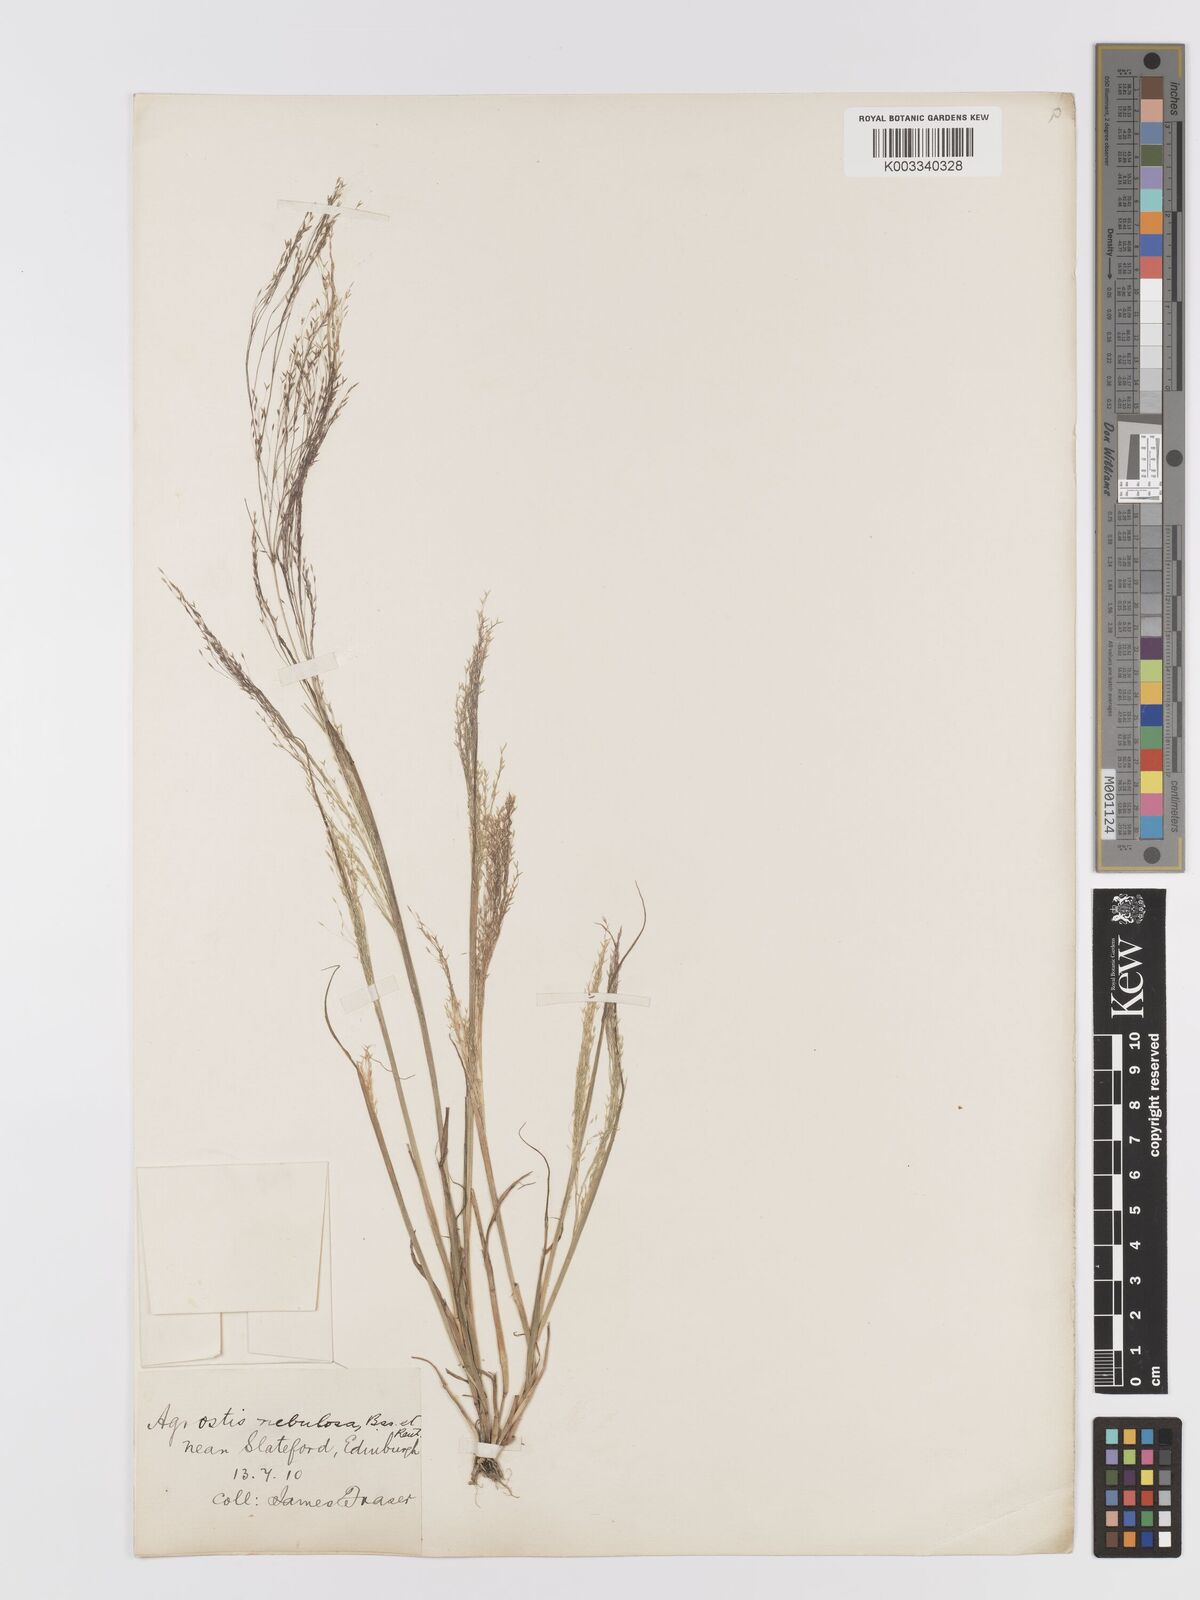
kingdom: Plantae
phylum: Tracheophyta
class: Liliopsida
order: Poales
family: Poaceae
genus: Agrostis
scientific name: Agrostis nebulosa
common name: Cloud grass
